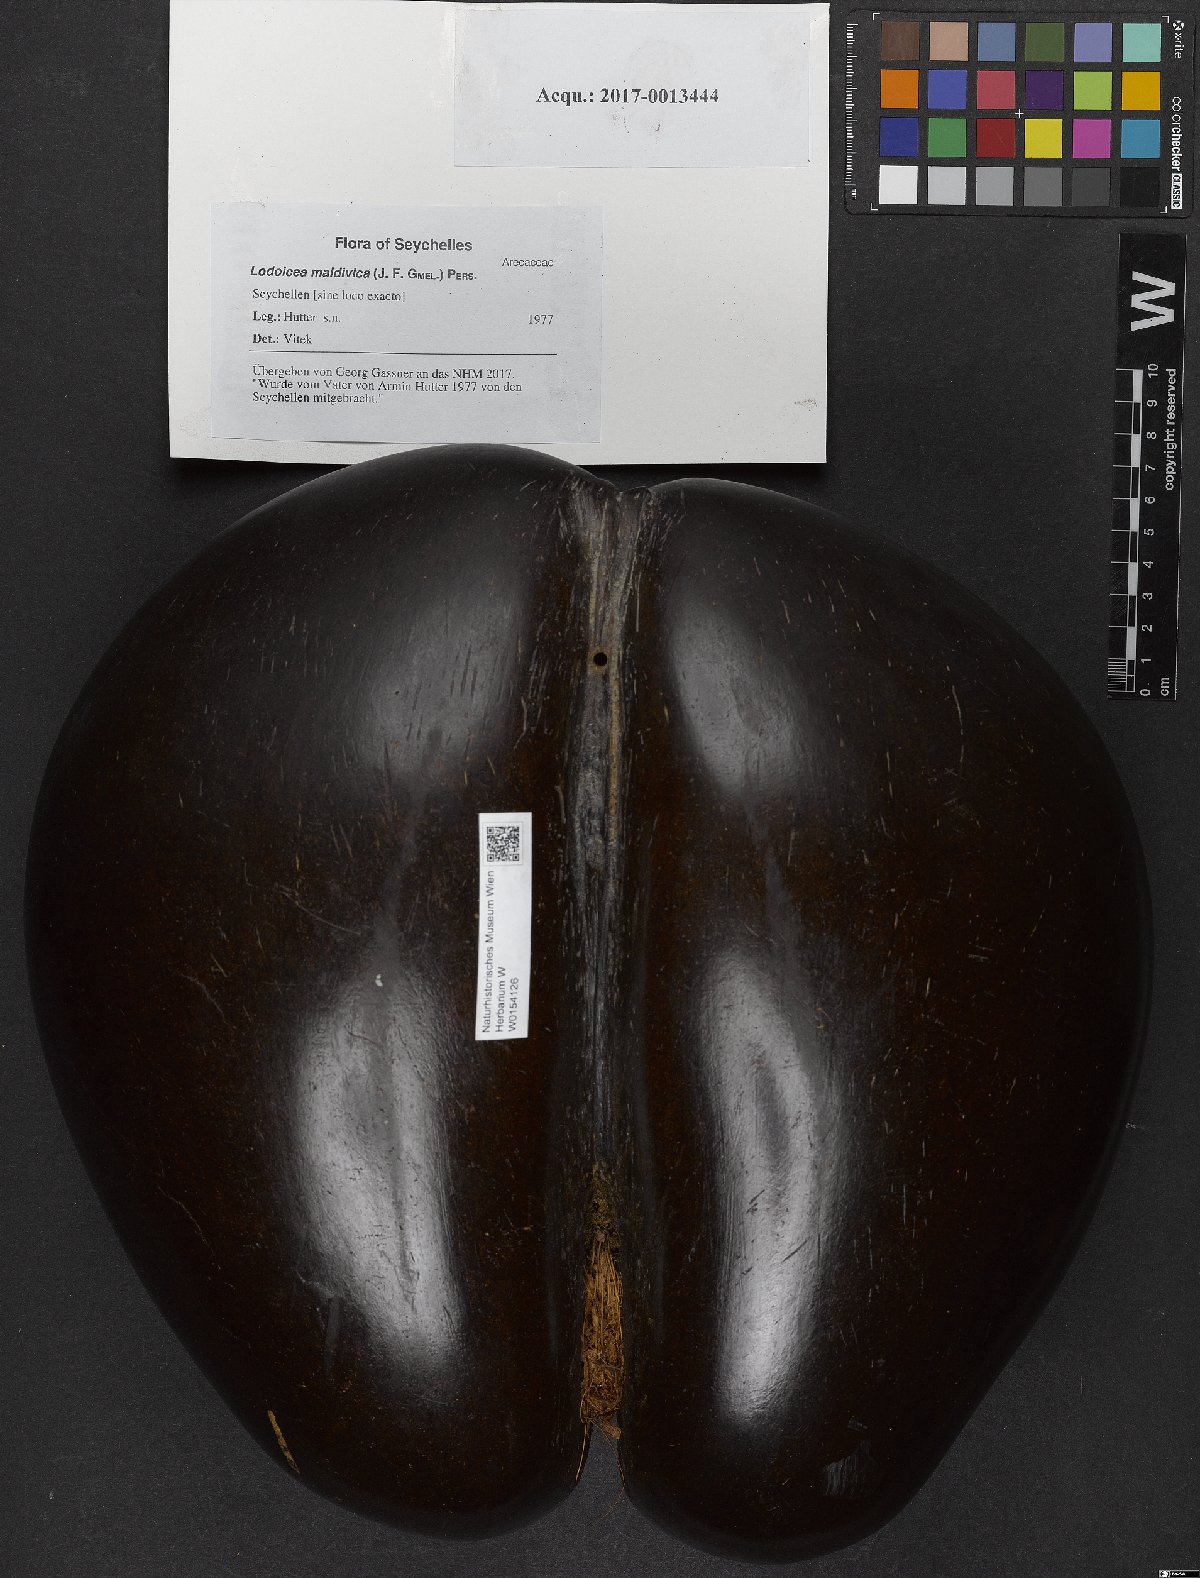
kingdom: Plantae
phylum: Tracheophyta
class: Liliopsida
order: Arecales
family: Arecaceae
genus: Lodoicea
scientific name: Lodoicea maldivica
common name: Double coconut palm
